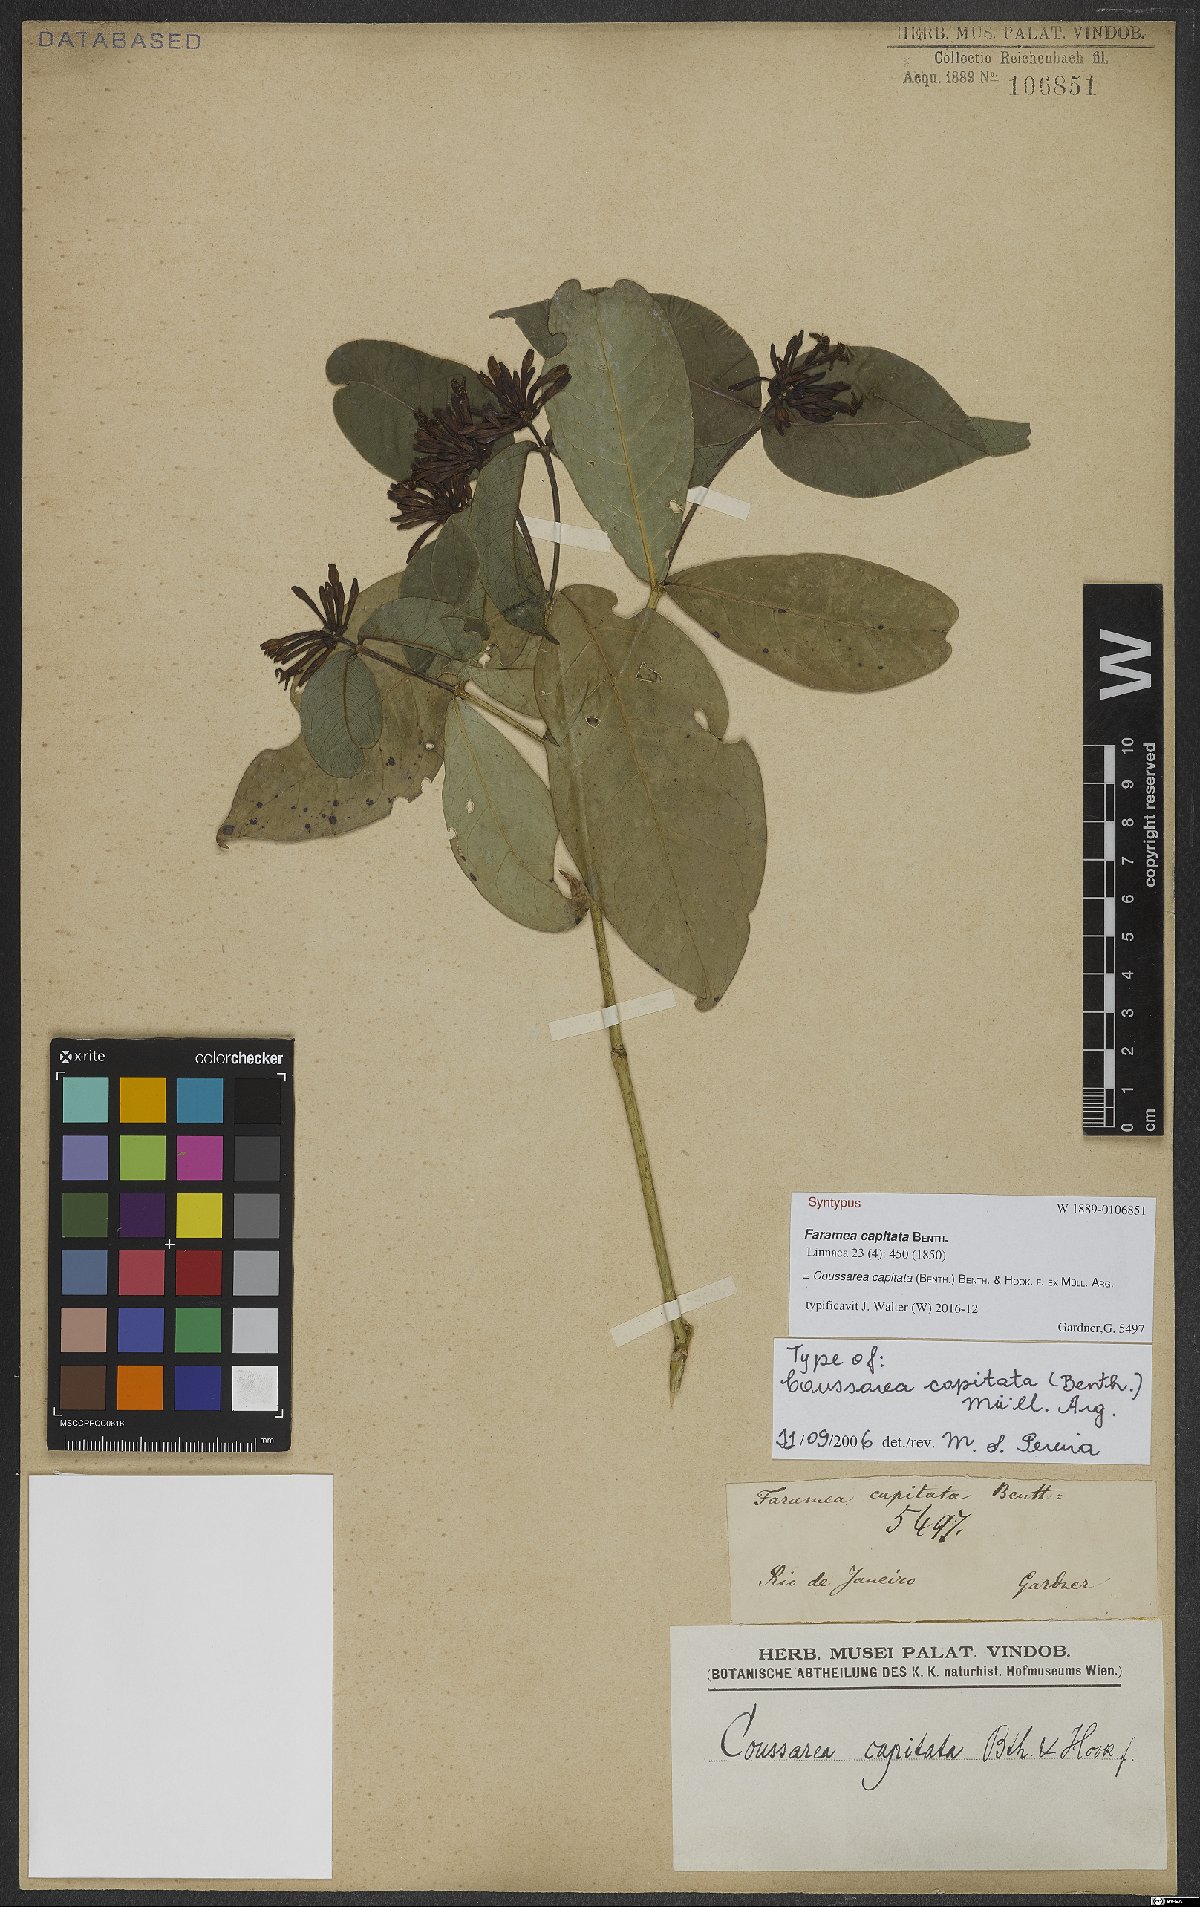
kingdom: Plantae
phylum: Tracheophyta
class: Magnoliopsida
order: Gentianales
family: Rubiaceae
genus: Coussarea
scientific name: Coussarea capitata
